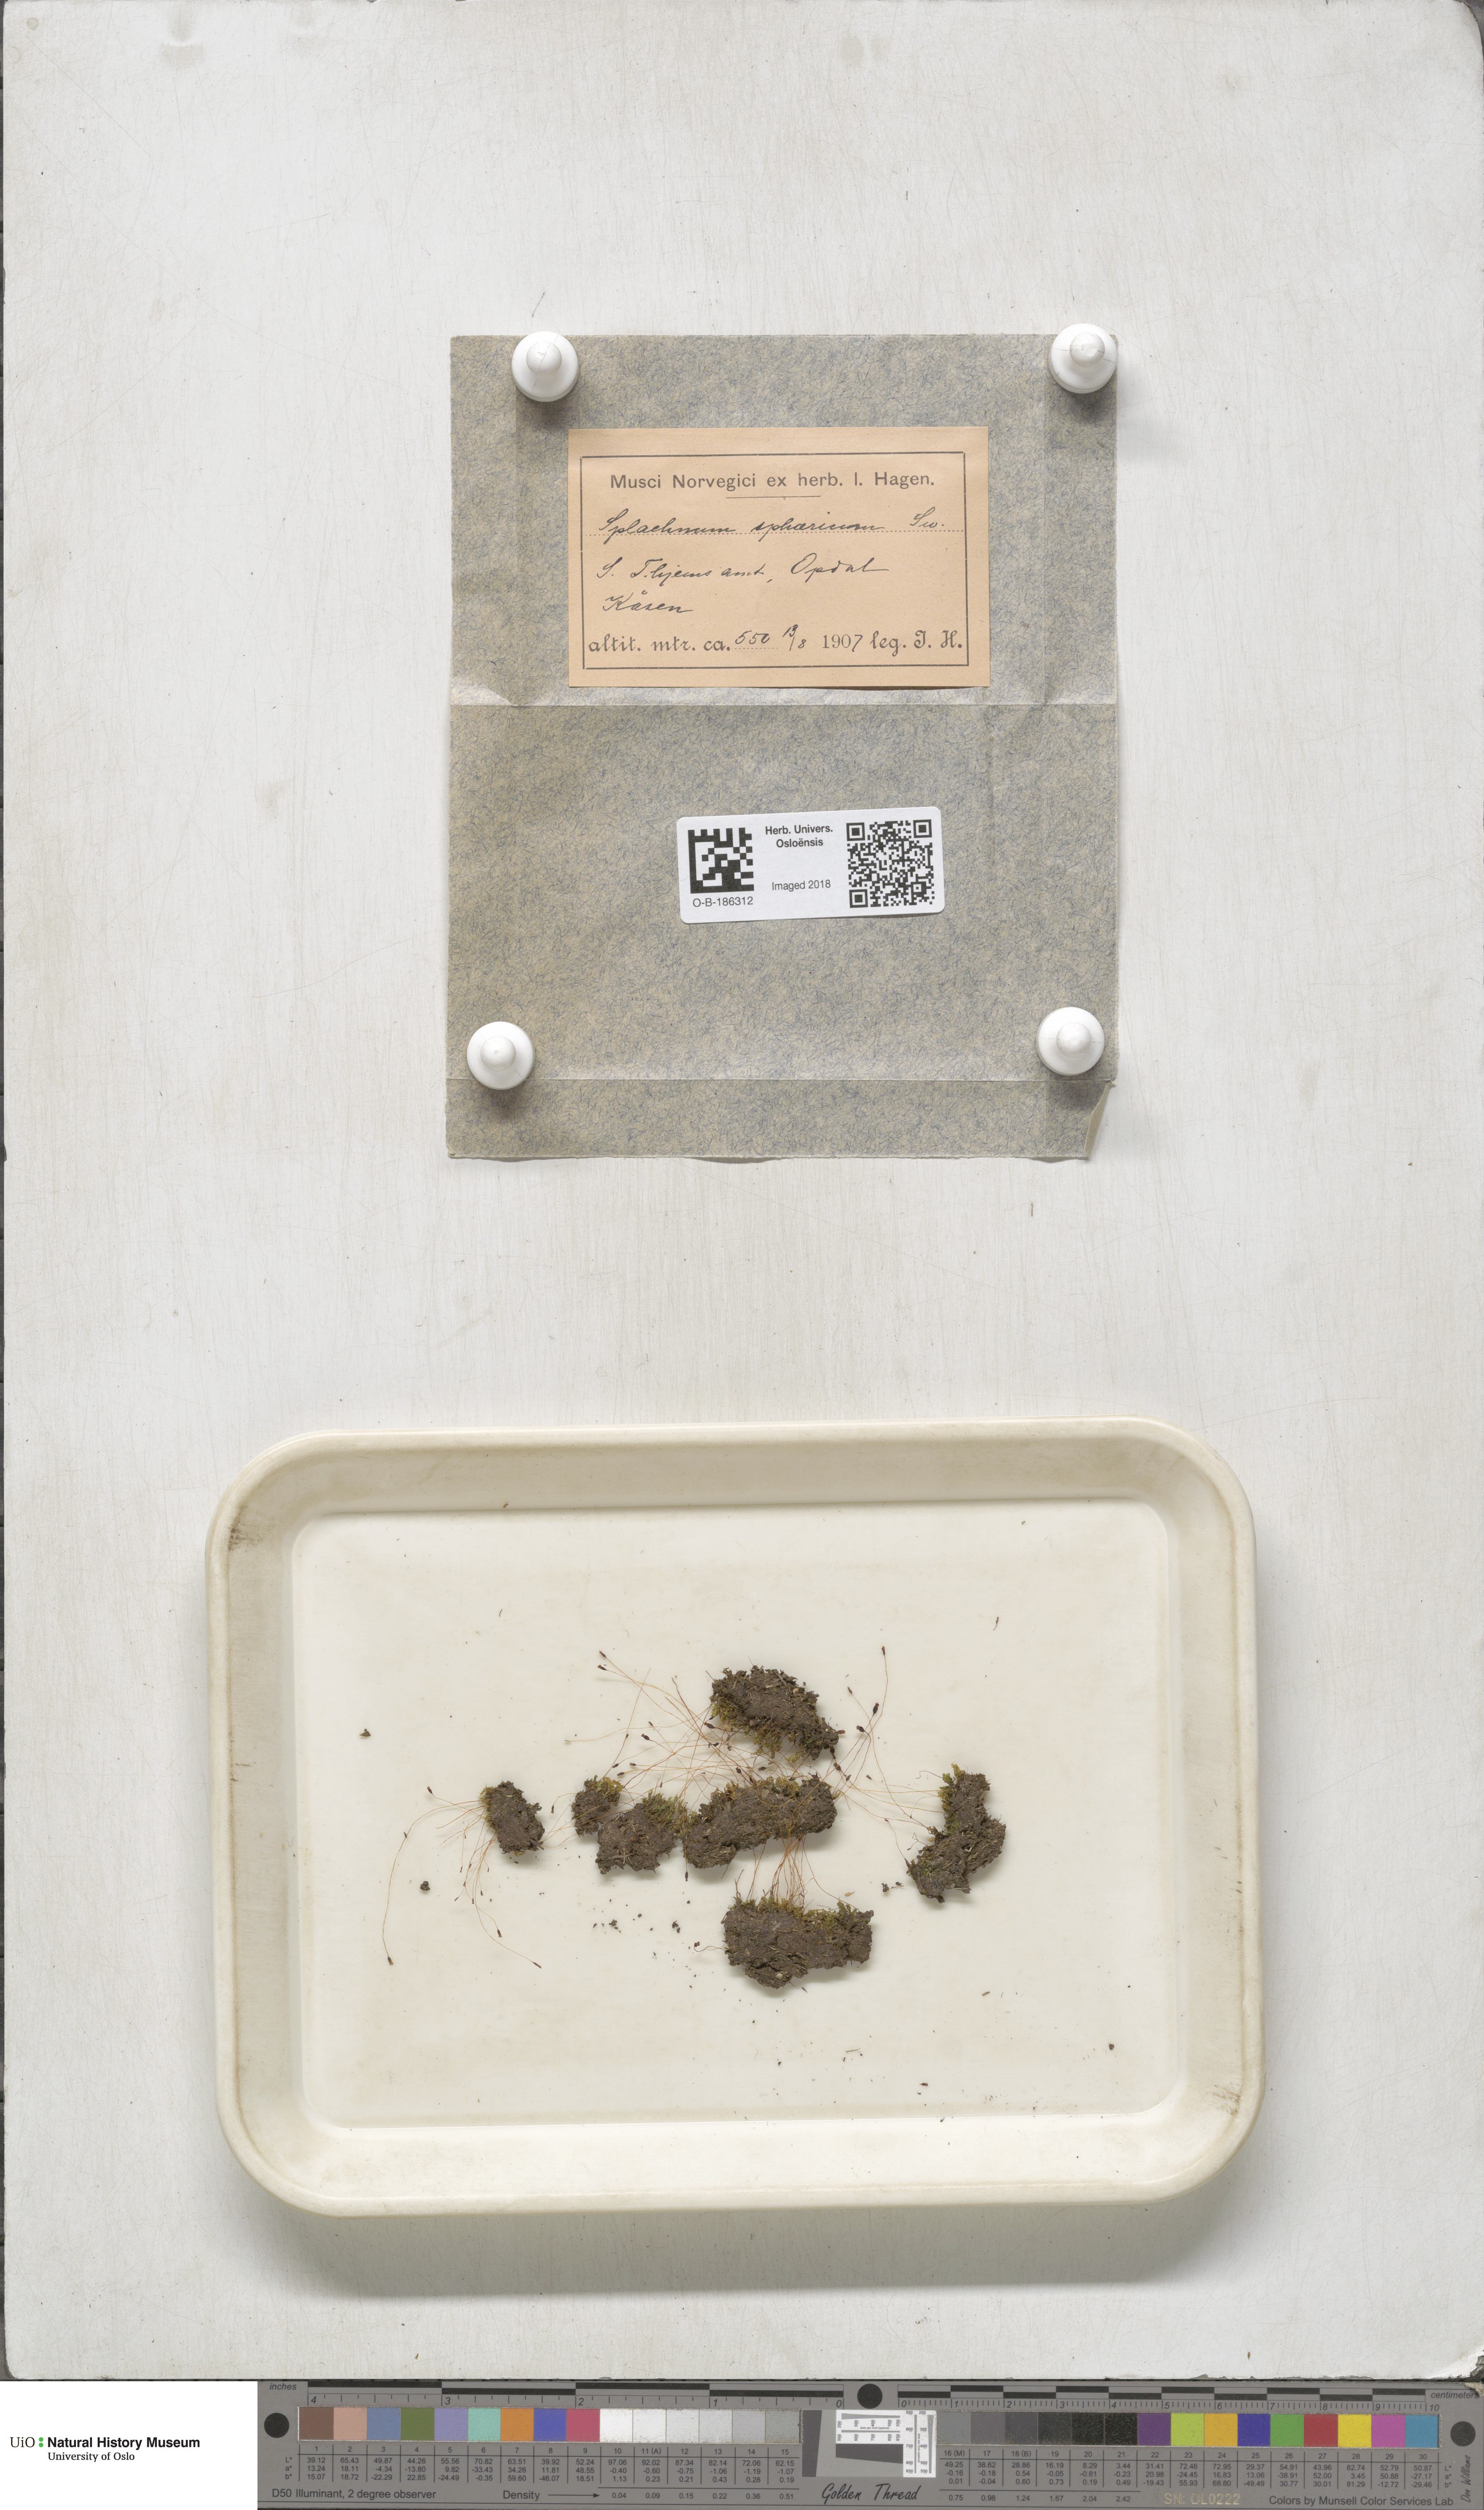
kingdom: Plantae
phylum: Bryophyta
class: Bryopsida
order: Splachnales
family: Splachnaceae
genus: Splachnum
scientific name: Splachnum sphaericum
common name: Round-fruited dung moss
